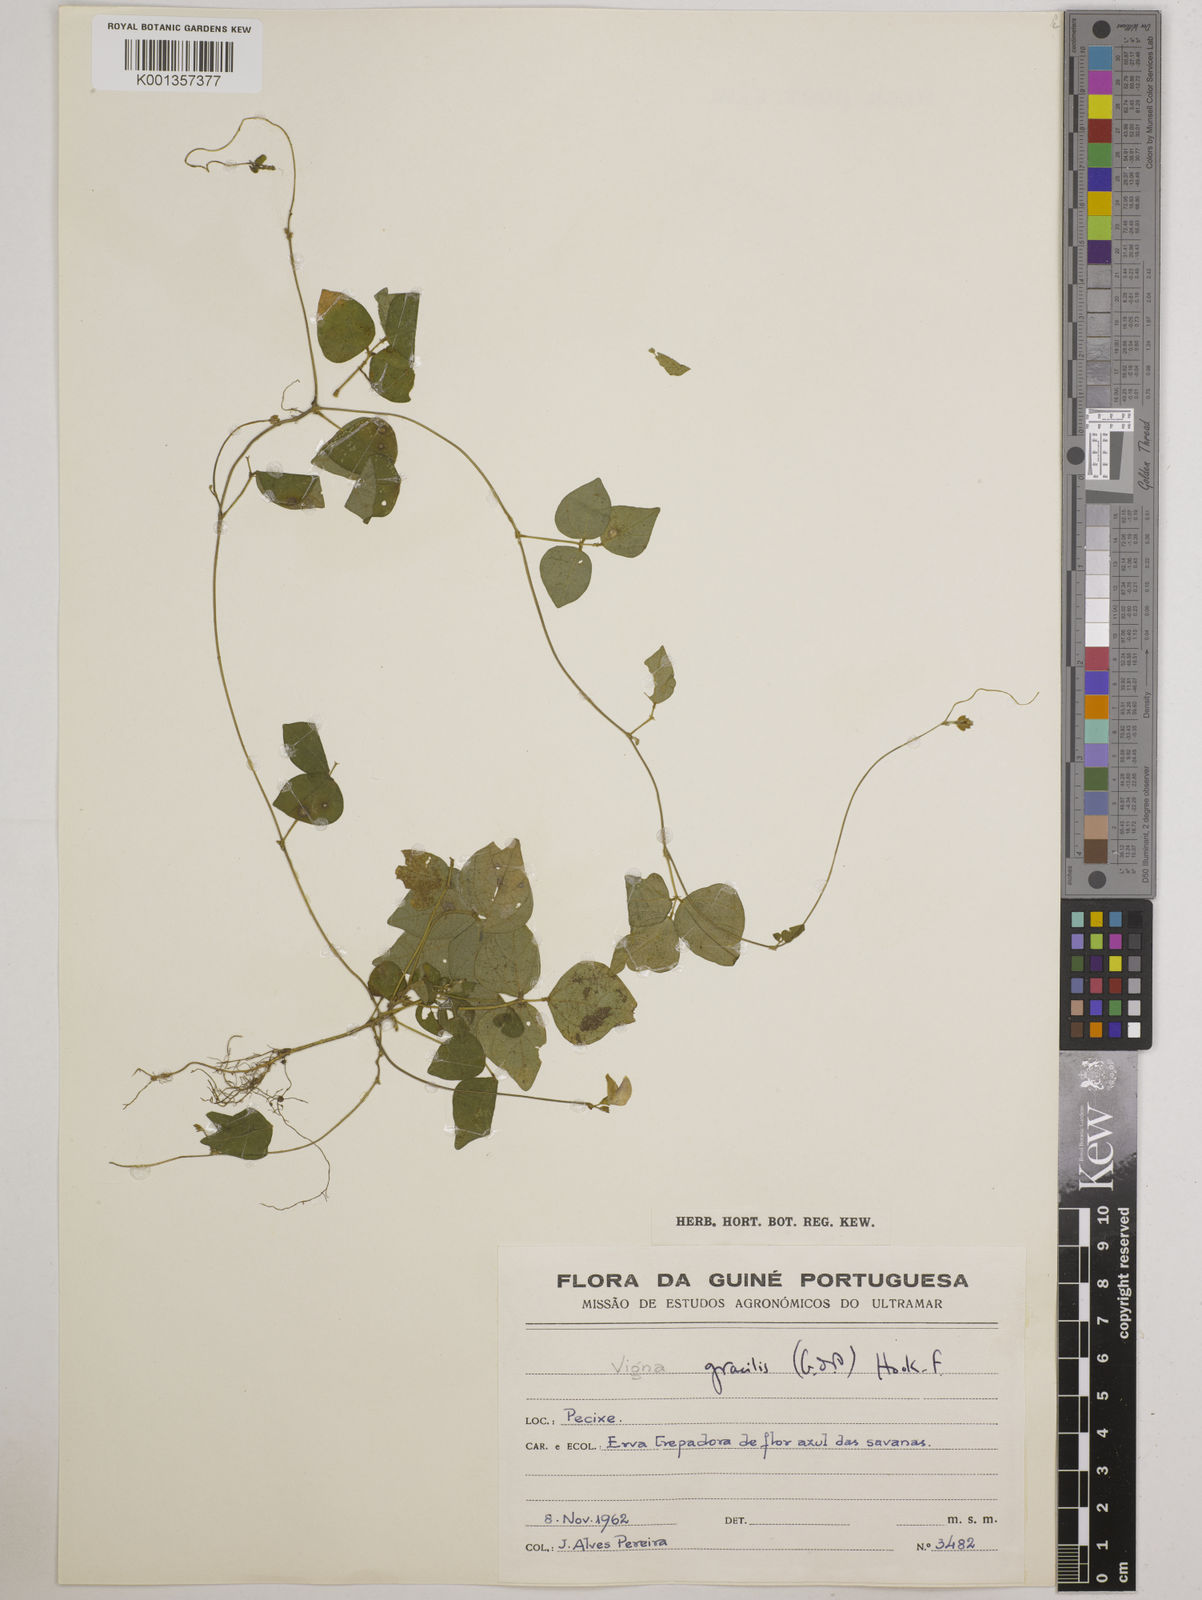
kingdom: Plantae
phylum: Tracheophyta
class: Magnoliopsida
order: Fabales
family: Fabaceae
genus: Vigna
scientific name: Vigna gracilis
